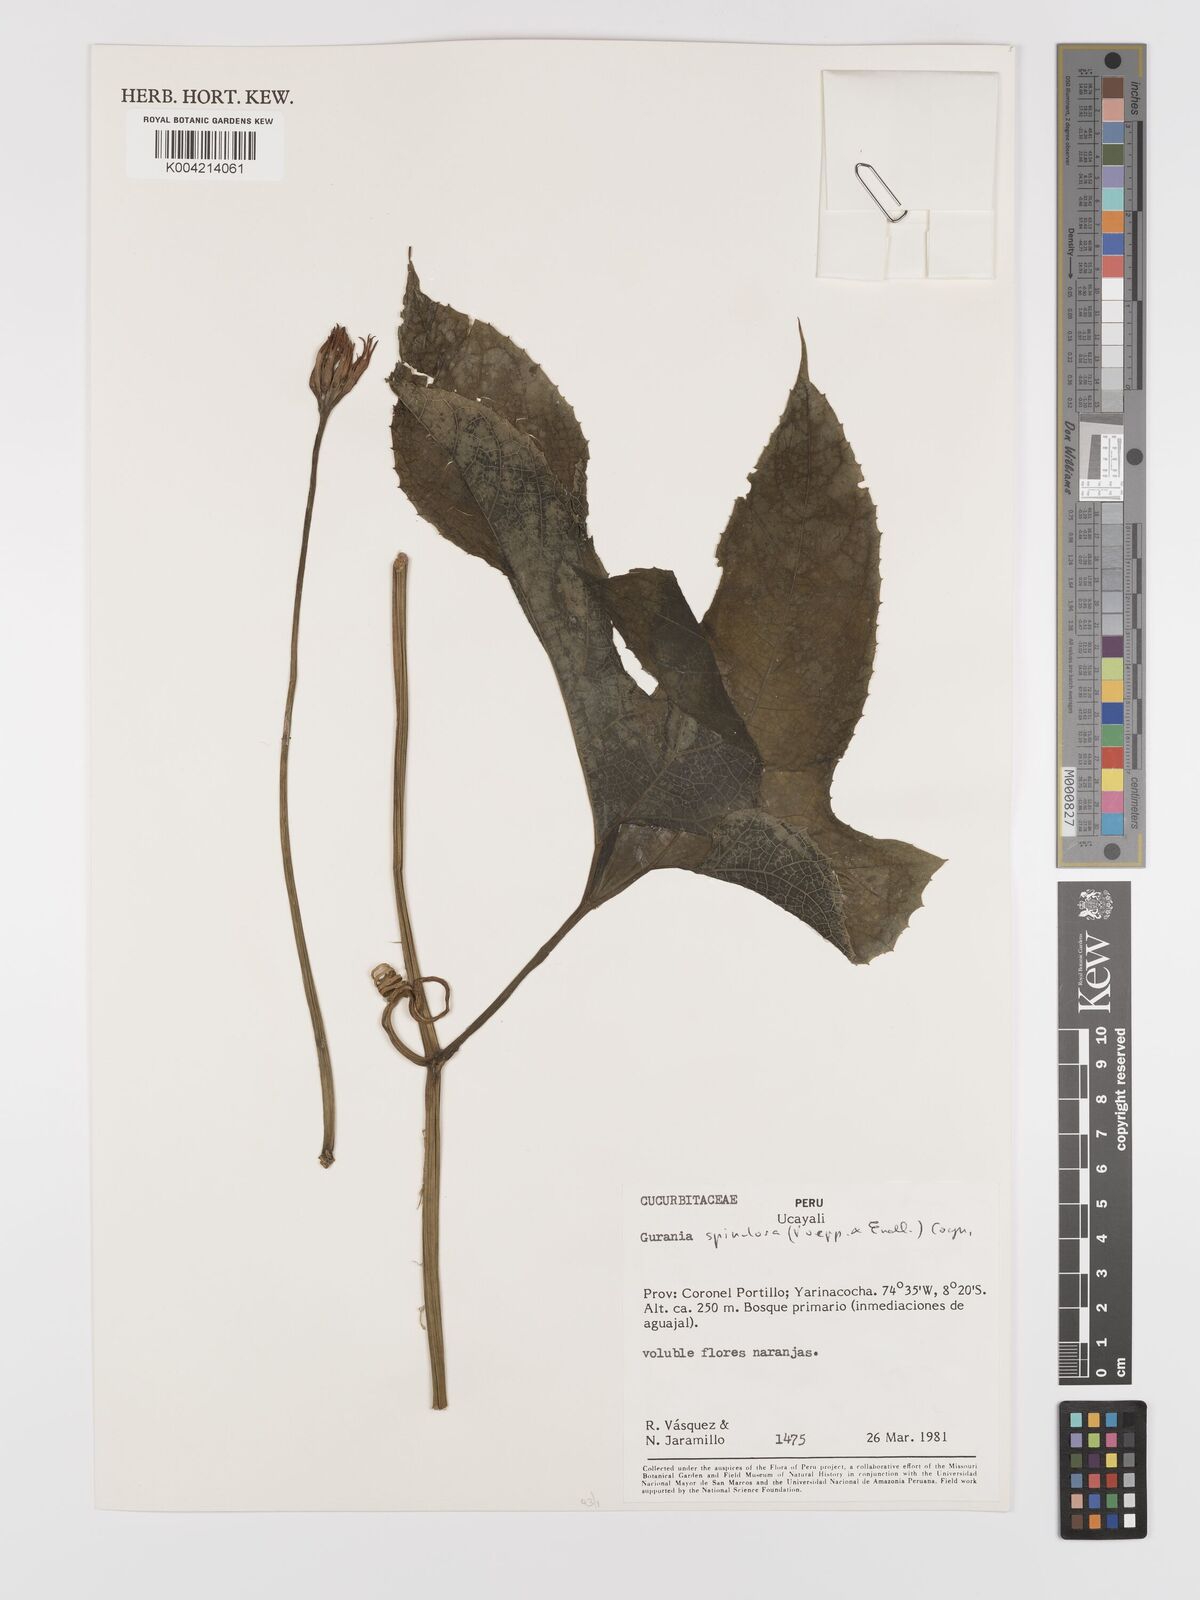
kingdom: Plantae
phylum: Tracheophyta
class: Magnoliopsida
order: Cucurbitales
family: Cucurbitaceae
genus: Gurania
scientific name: Gurania lobata
